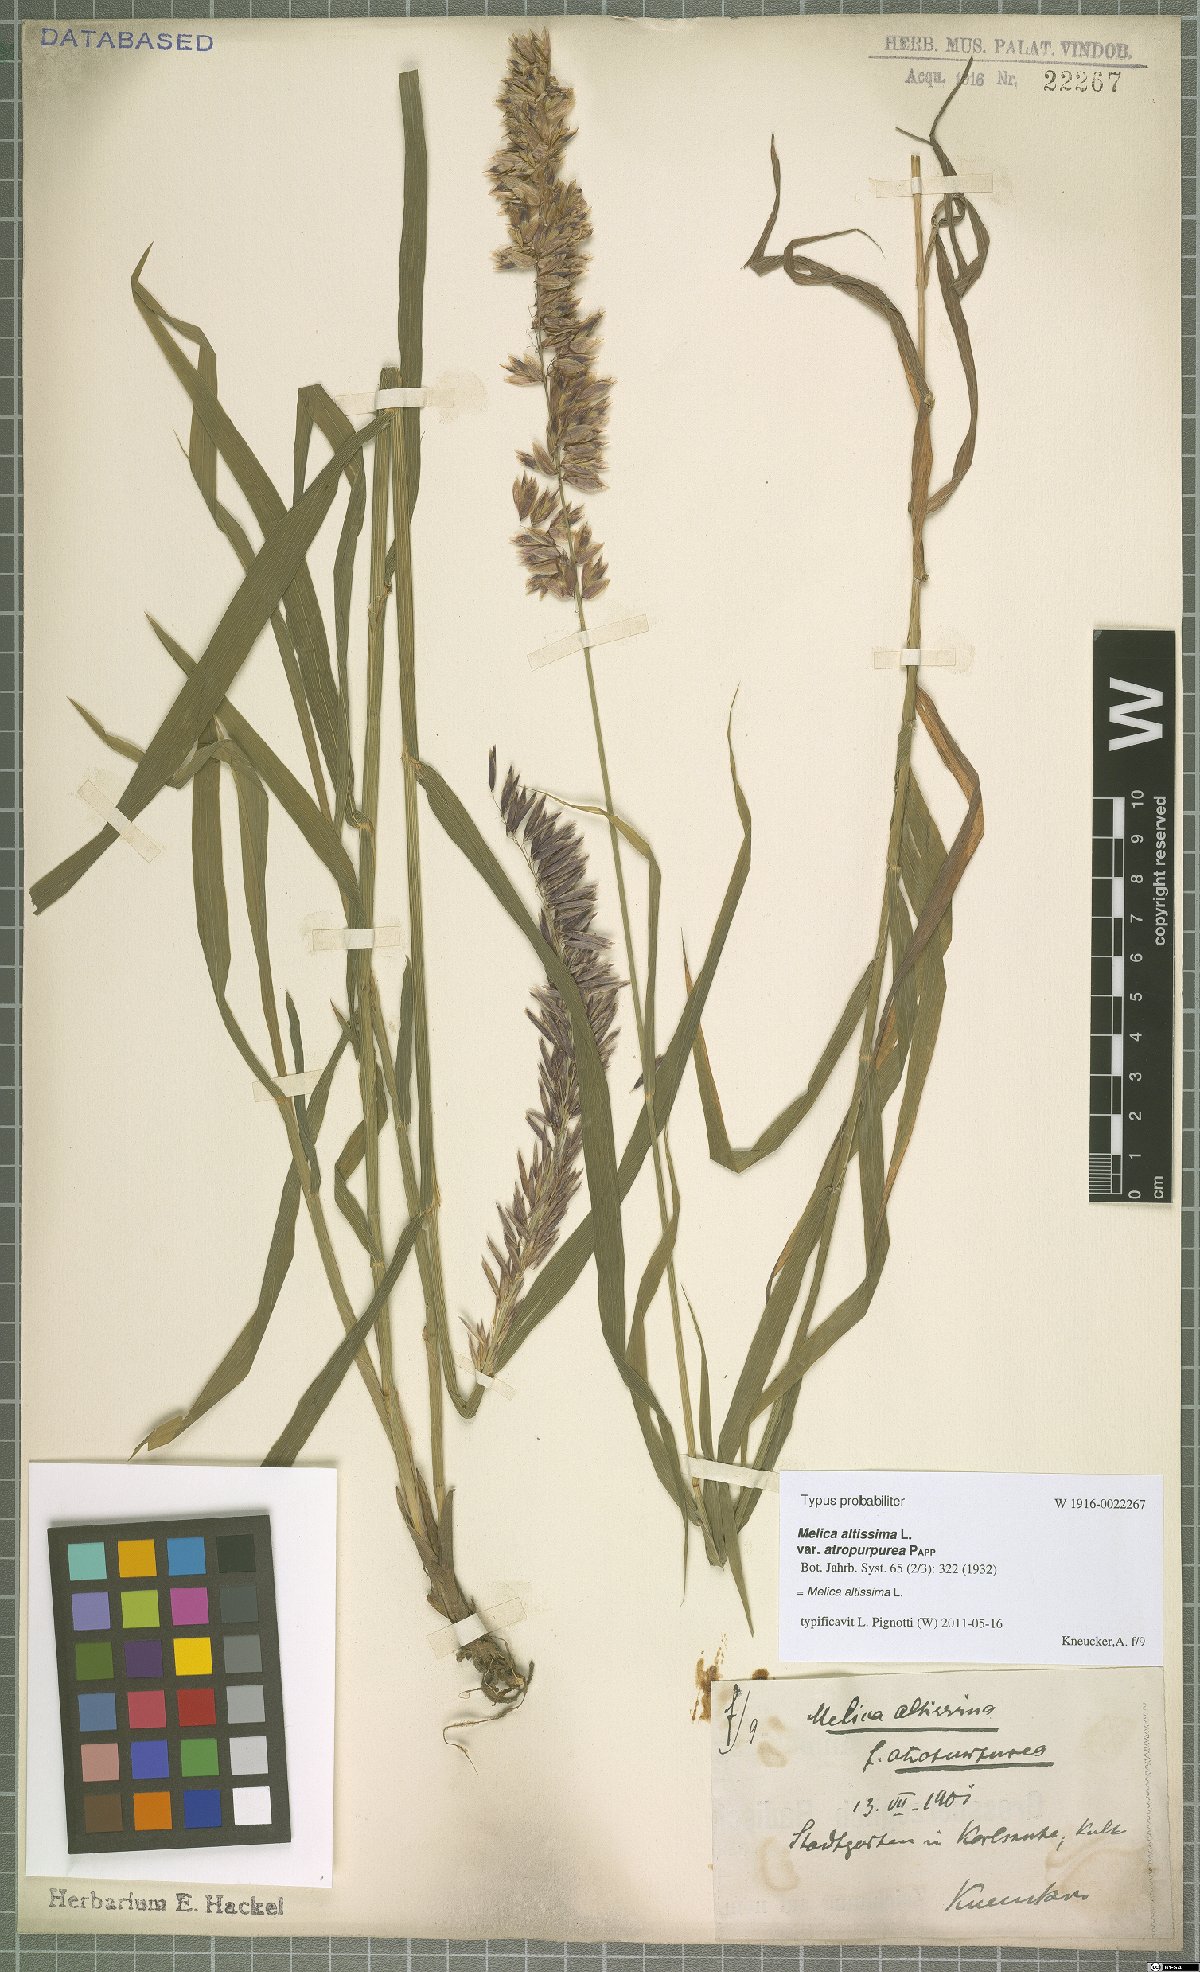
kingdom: Plantae
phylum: Tracheophyta
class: Liliopsida
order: Poales
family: Poaceae
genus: Melica
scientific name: Melica altissima
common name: Siberian melicgrass
